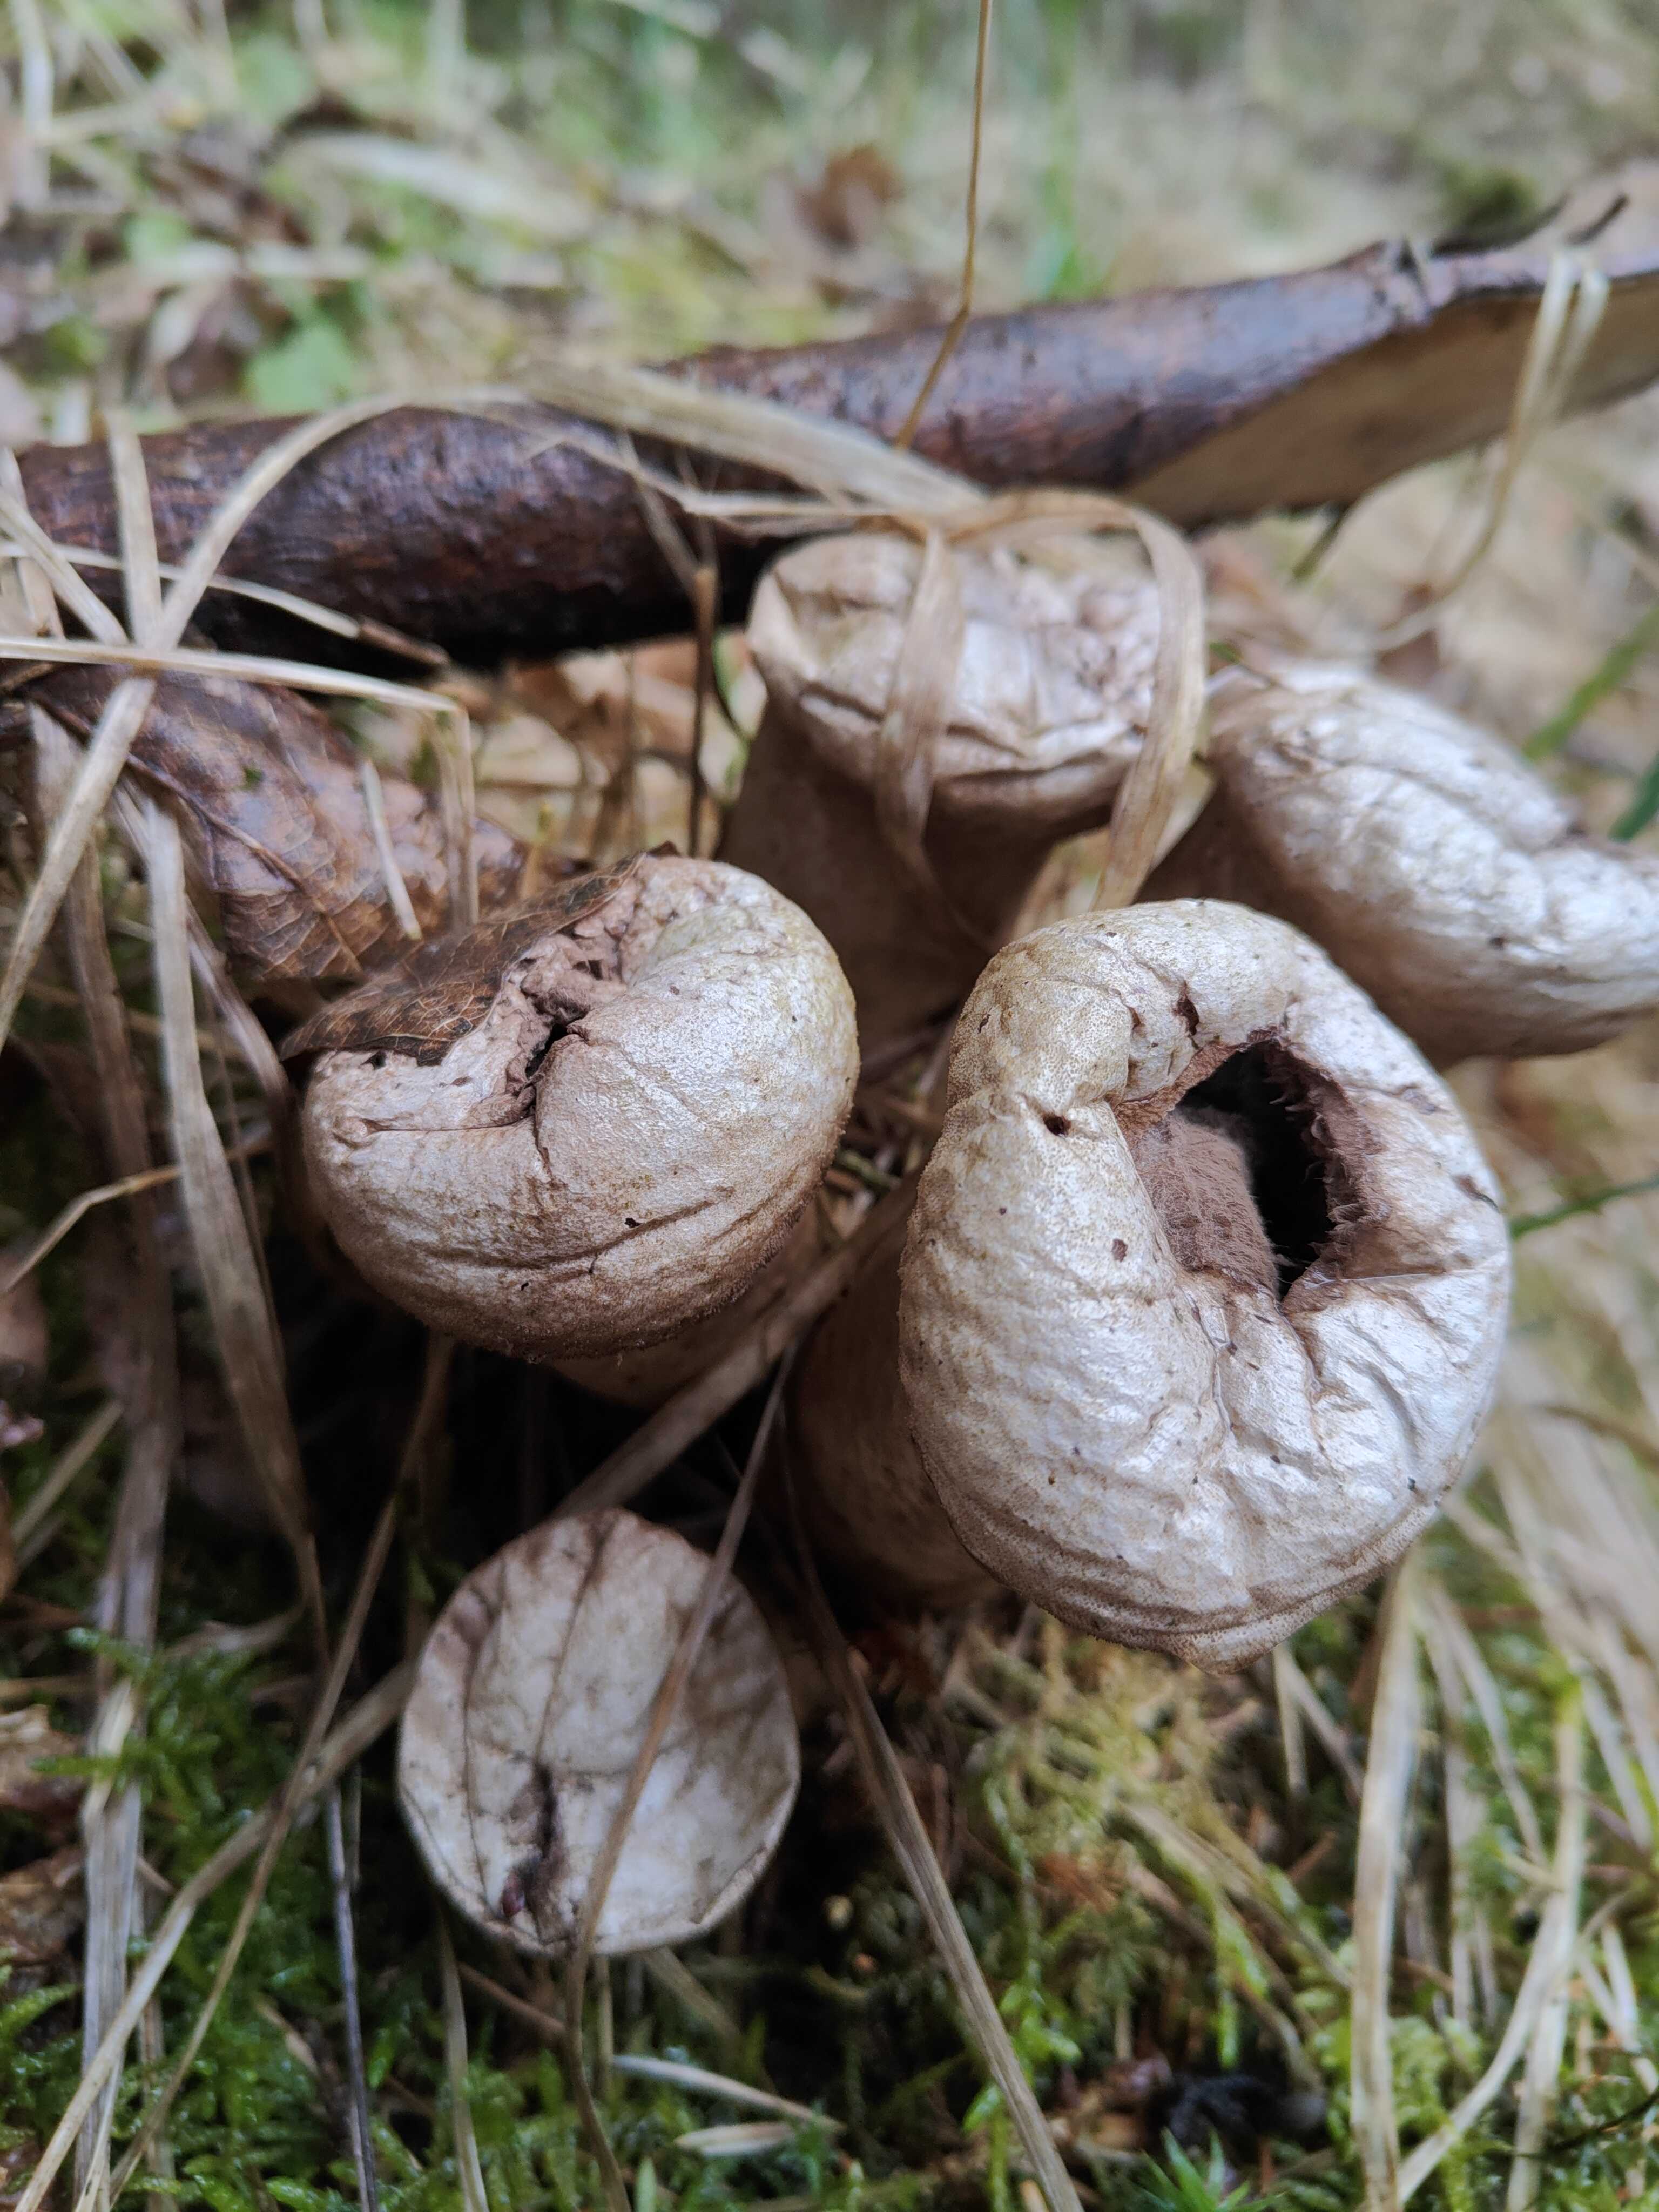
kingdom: Fungi
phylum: Basidiomycota
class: Agaricomycetes
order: Agaricales
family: Agaricaceae
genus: Lycoperdon
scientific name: Lycoperdon
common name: støvbold
